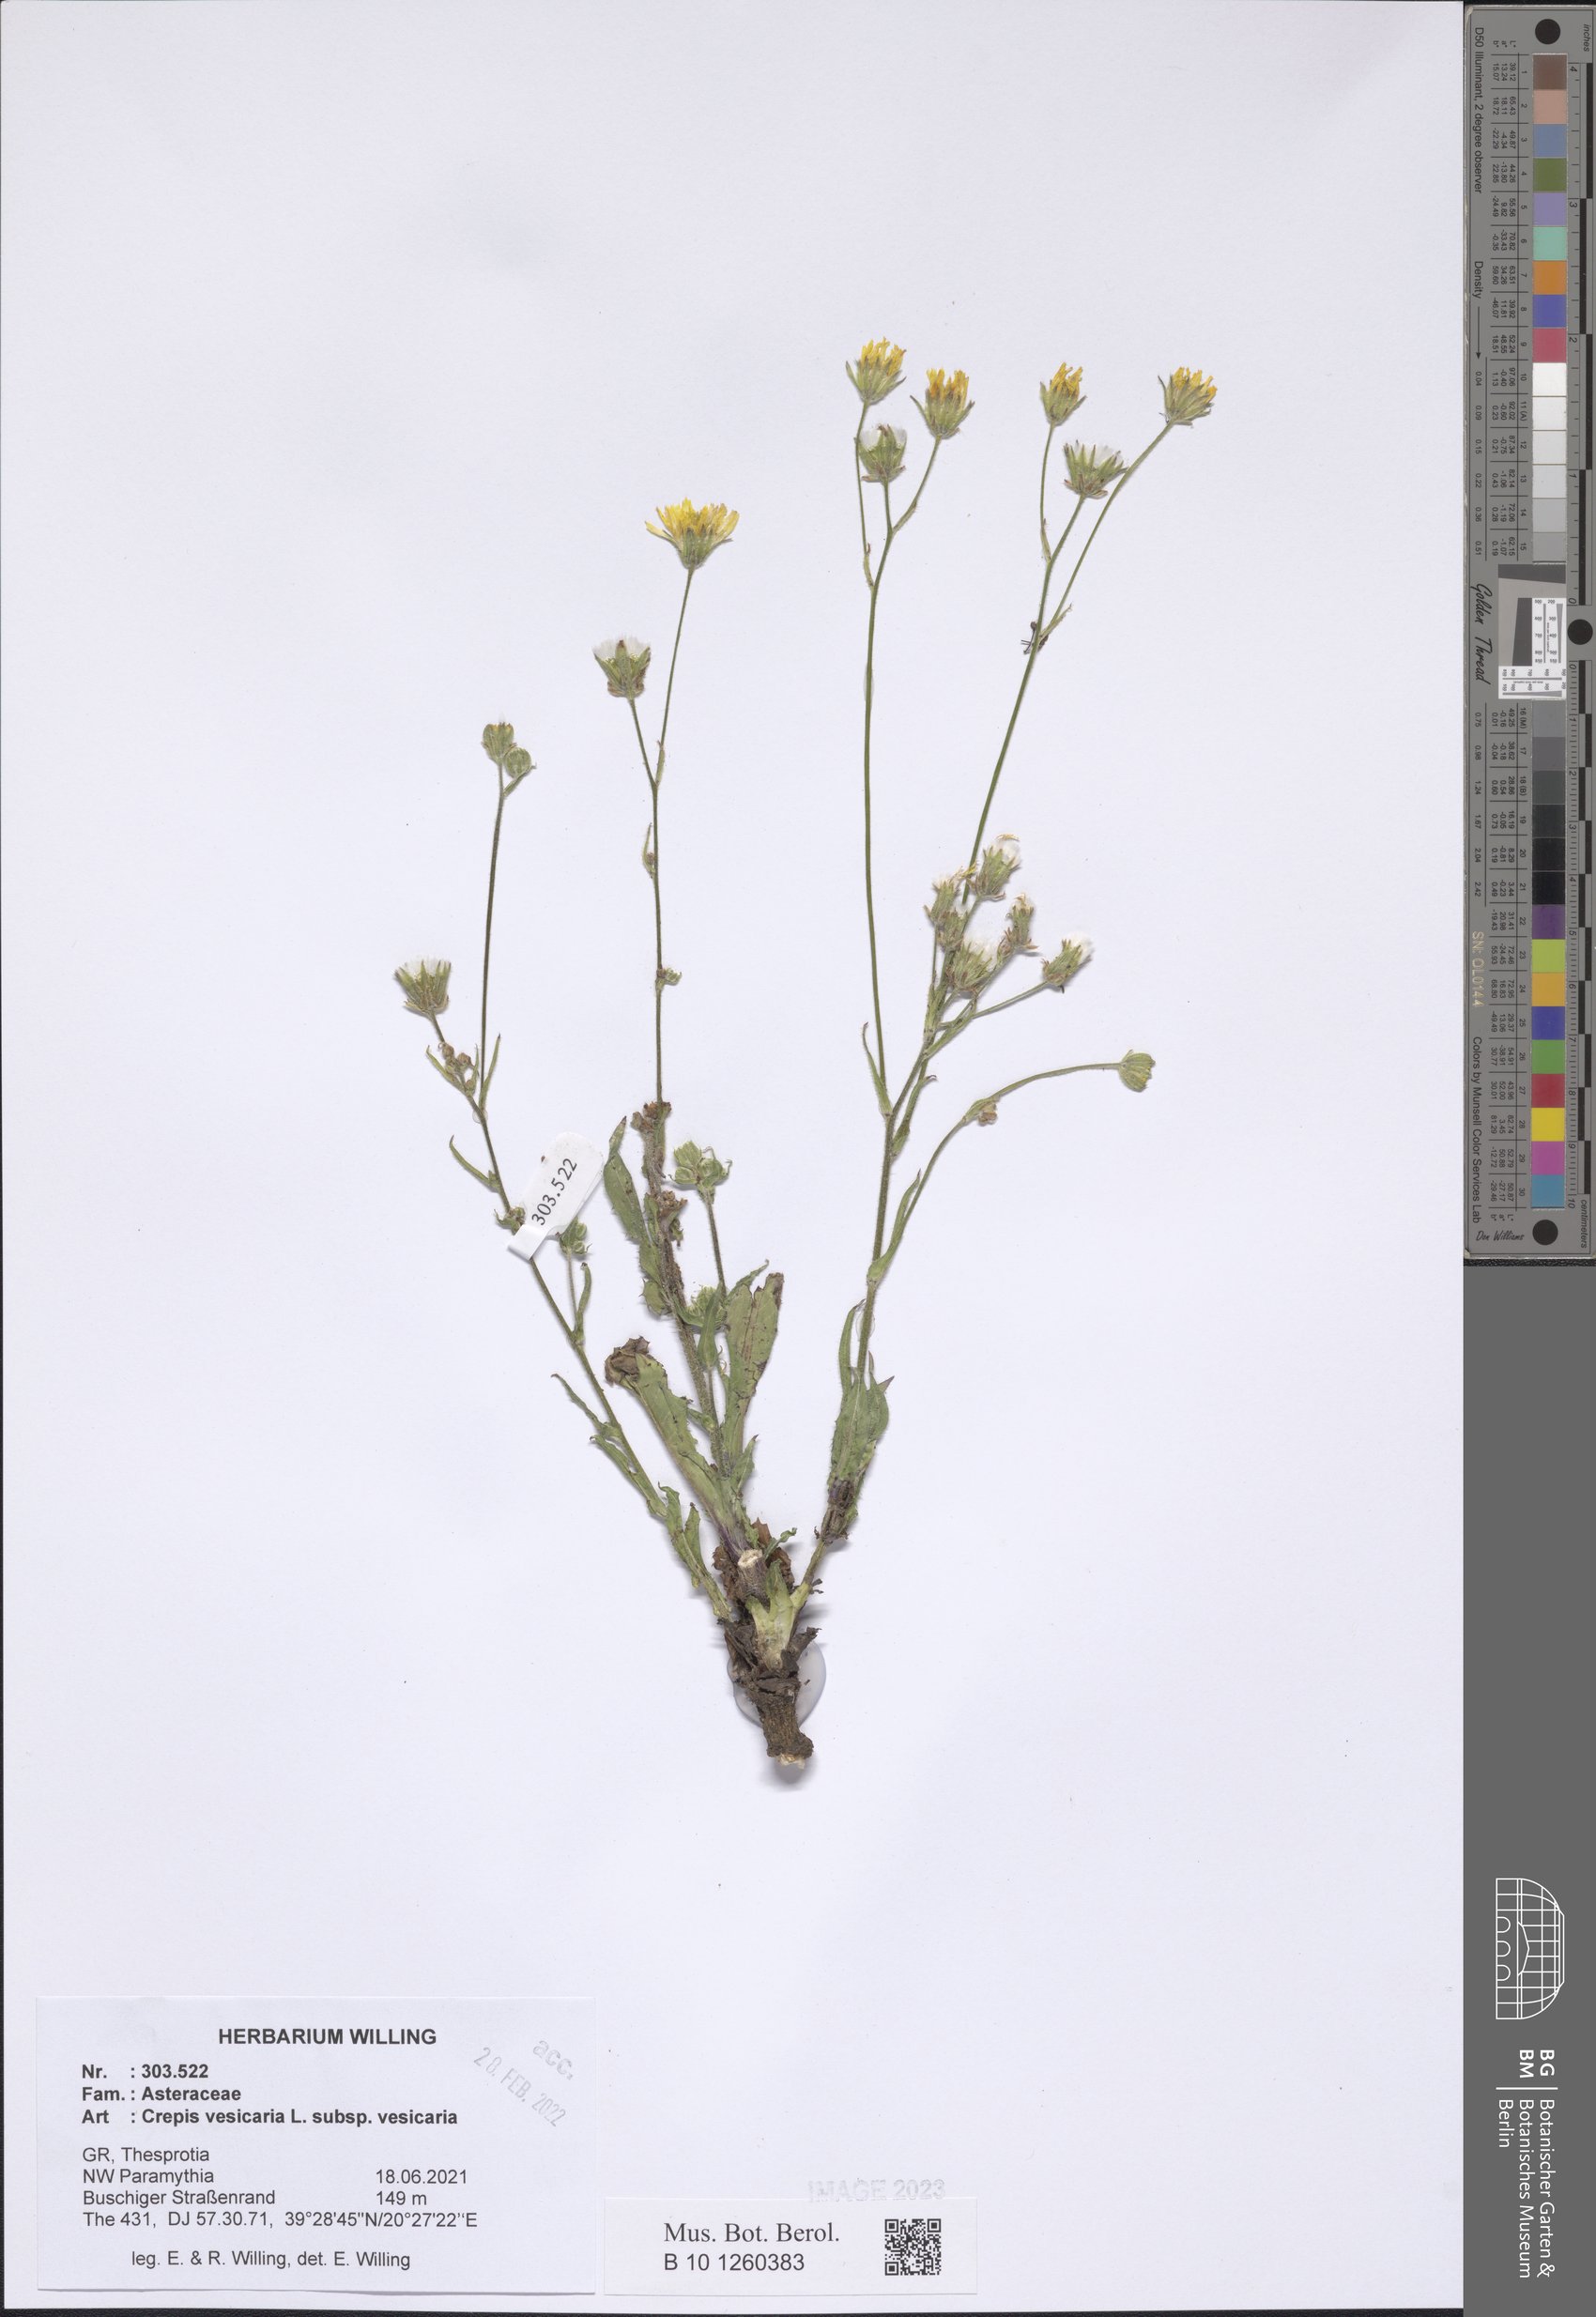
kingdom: Plantae
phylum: Tracheophyta
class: Magnoliopsida
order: Asterales
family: Asteraceae
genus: Crepis
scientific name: Crepis vesicaria
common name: Beaked hawksbeard
